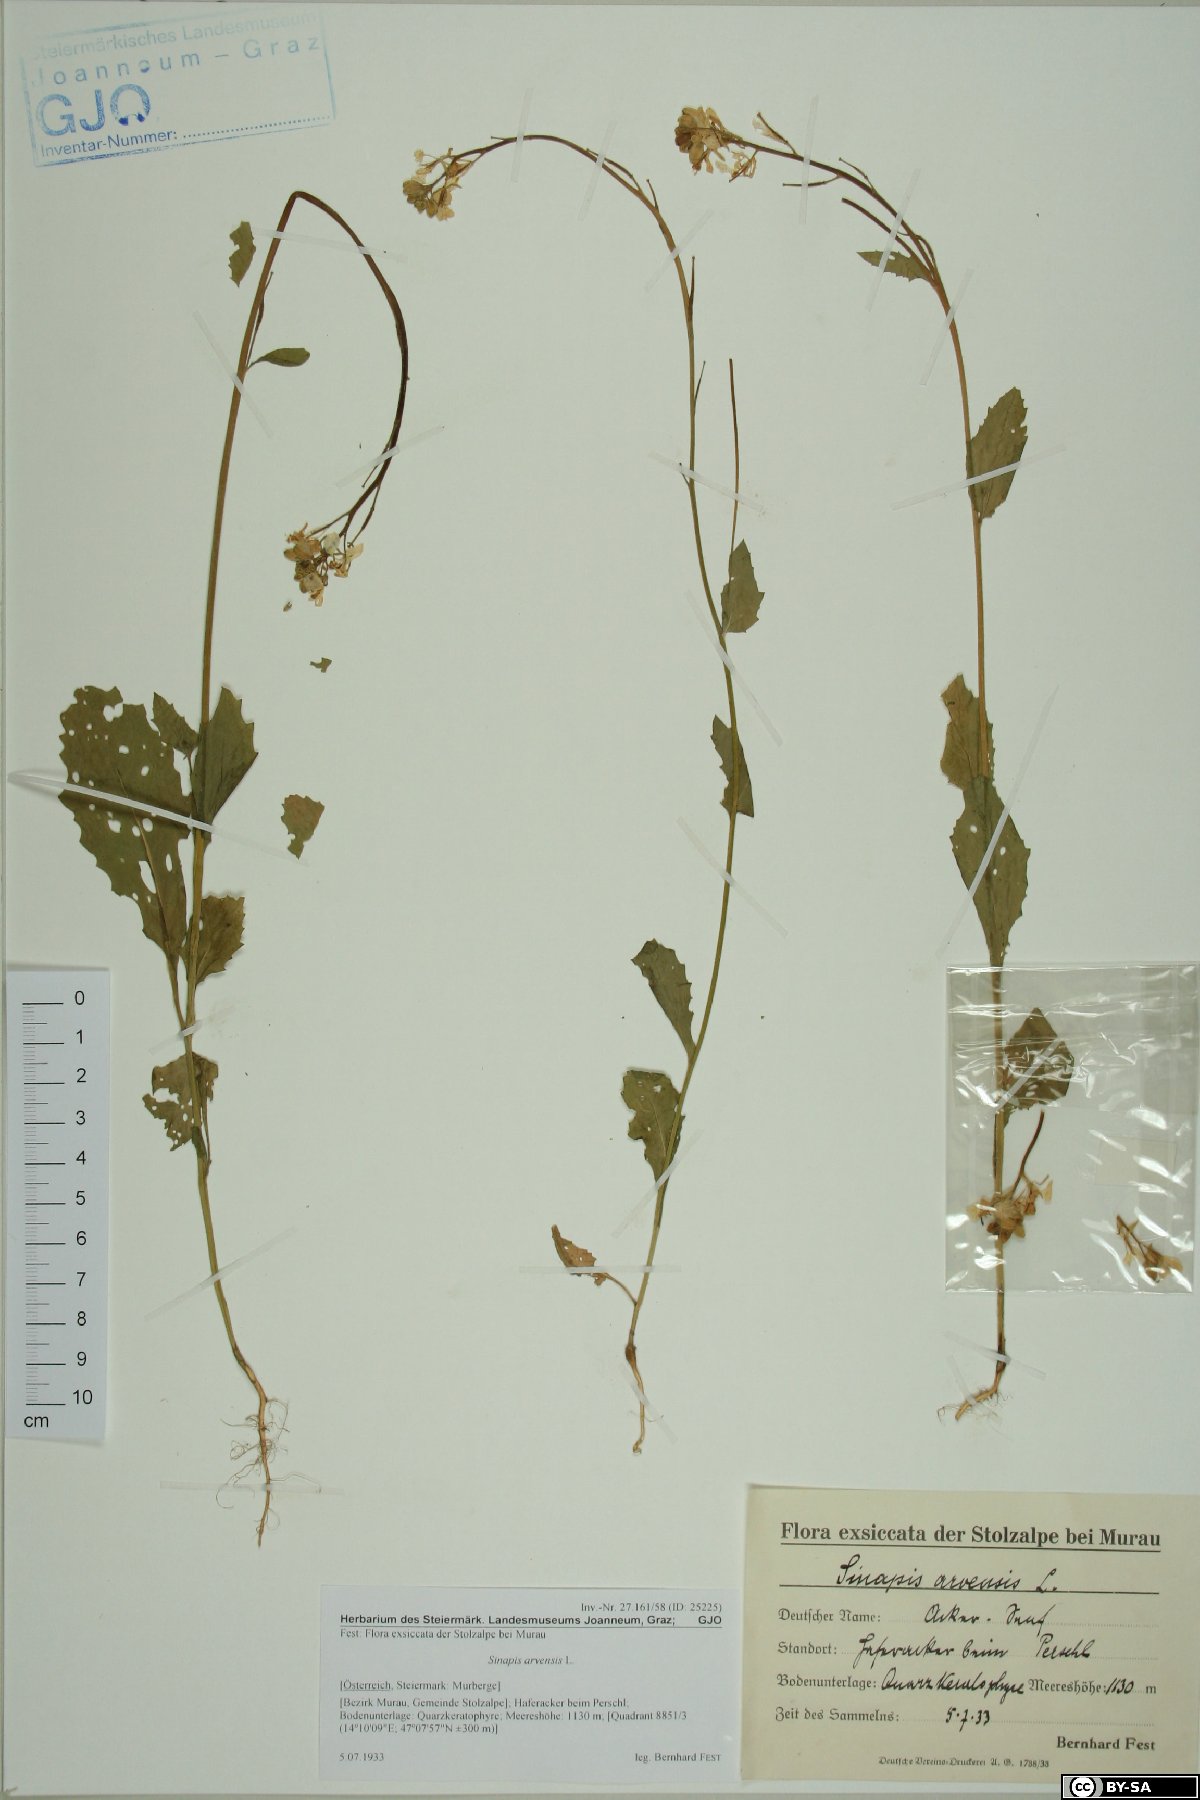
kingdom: Plantae
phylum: Tracheophyta
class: Magnoliopsida
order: Brassicales
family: Brassicaceae
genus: Sinapis
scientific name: Sinapis arvensis
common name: Charlock
